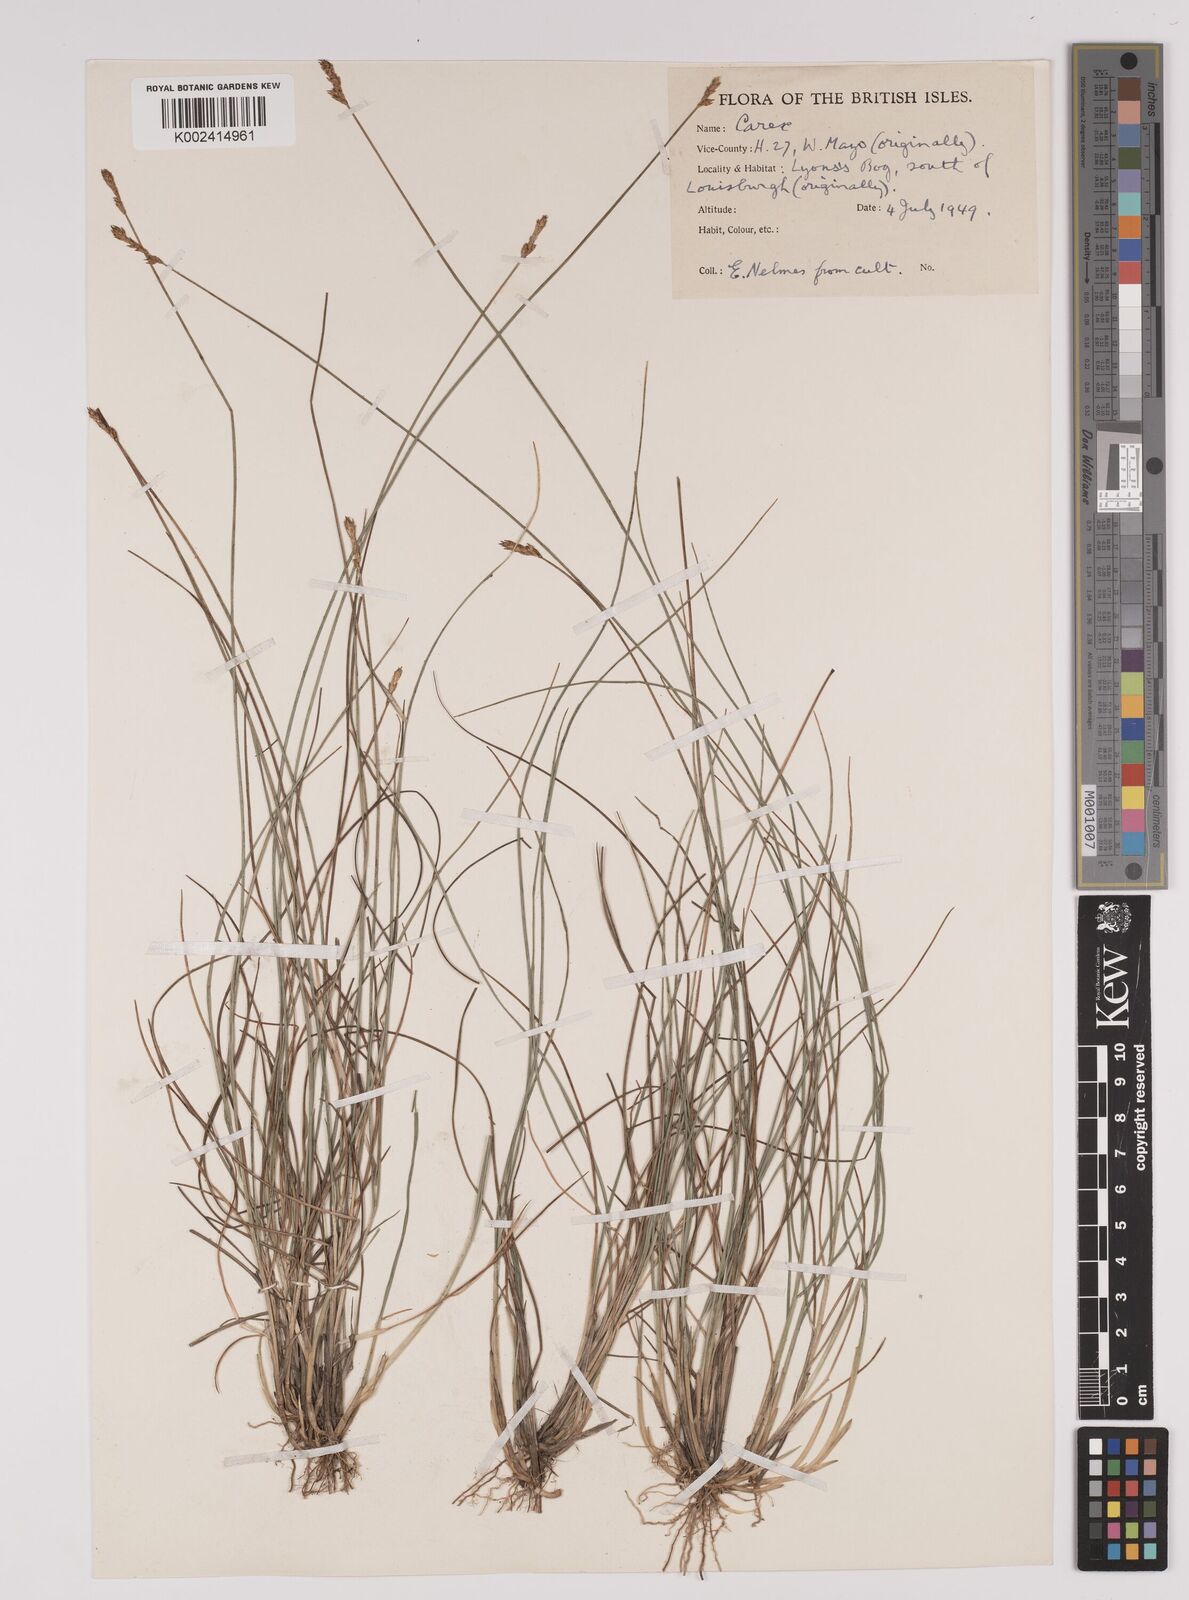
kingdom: Plantae
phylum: Tracheophyta
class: Liliopsida
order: Poales
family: Cyperaceae
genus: Carex
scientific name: Carex dioica
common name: Dioecious sedge
